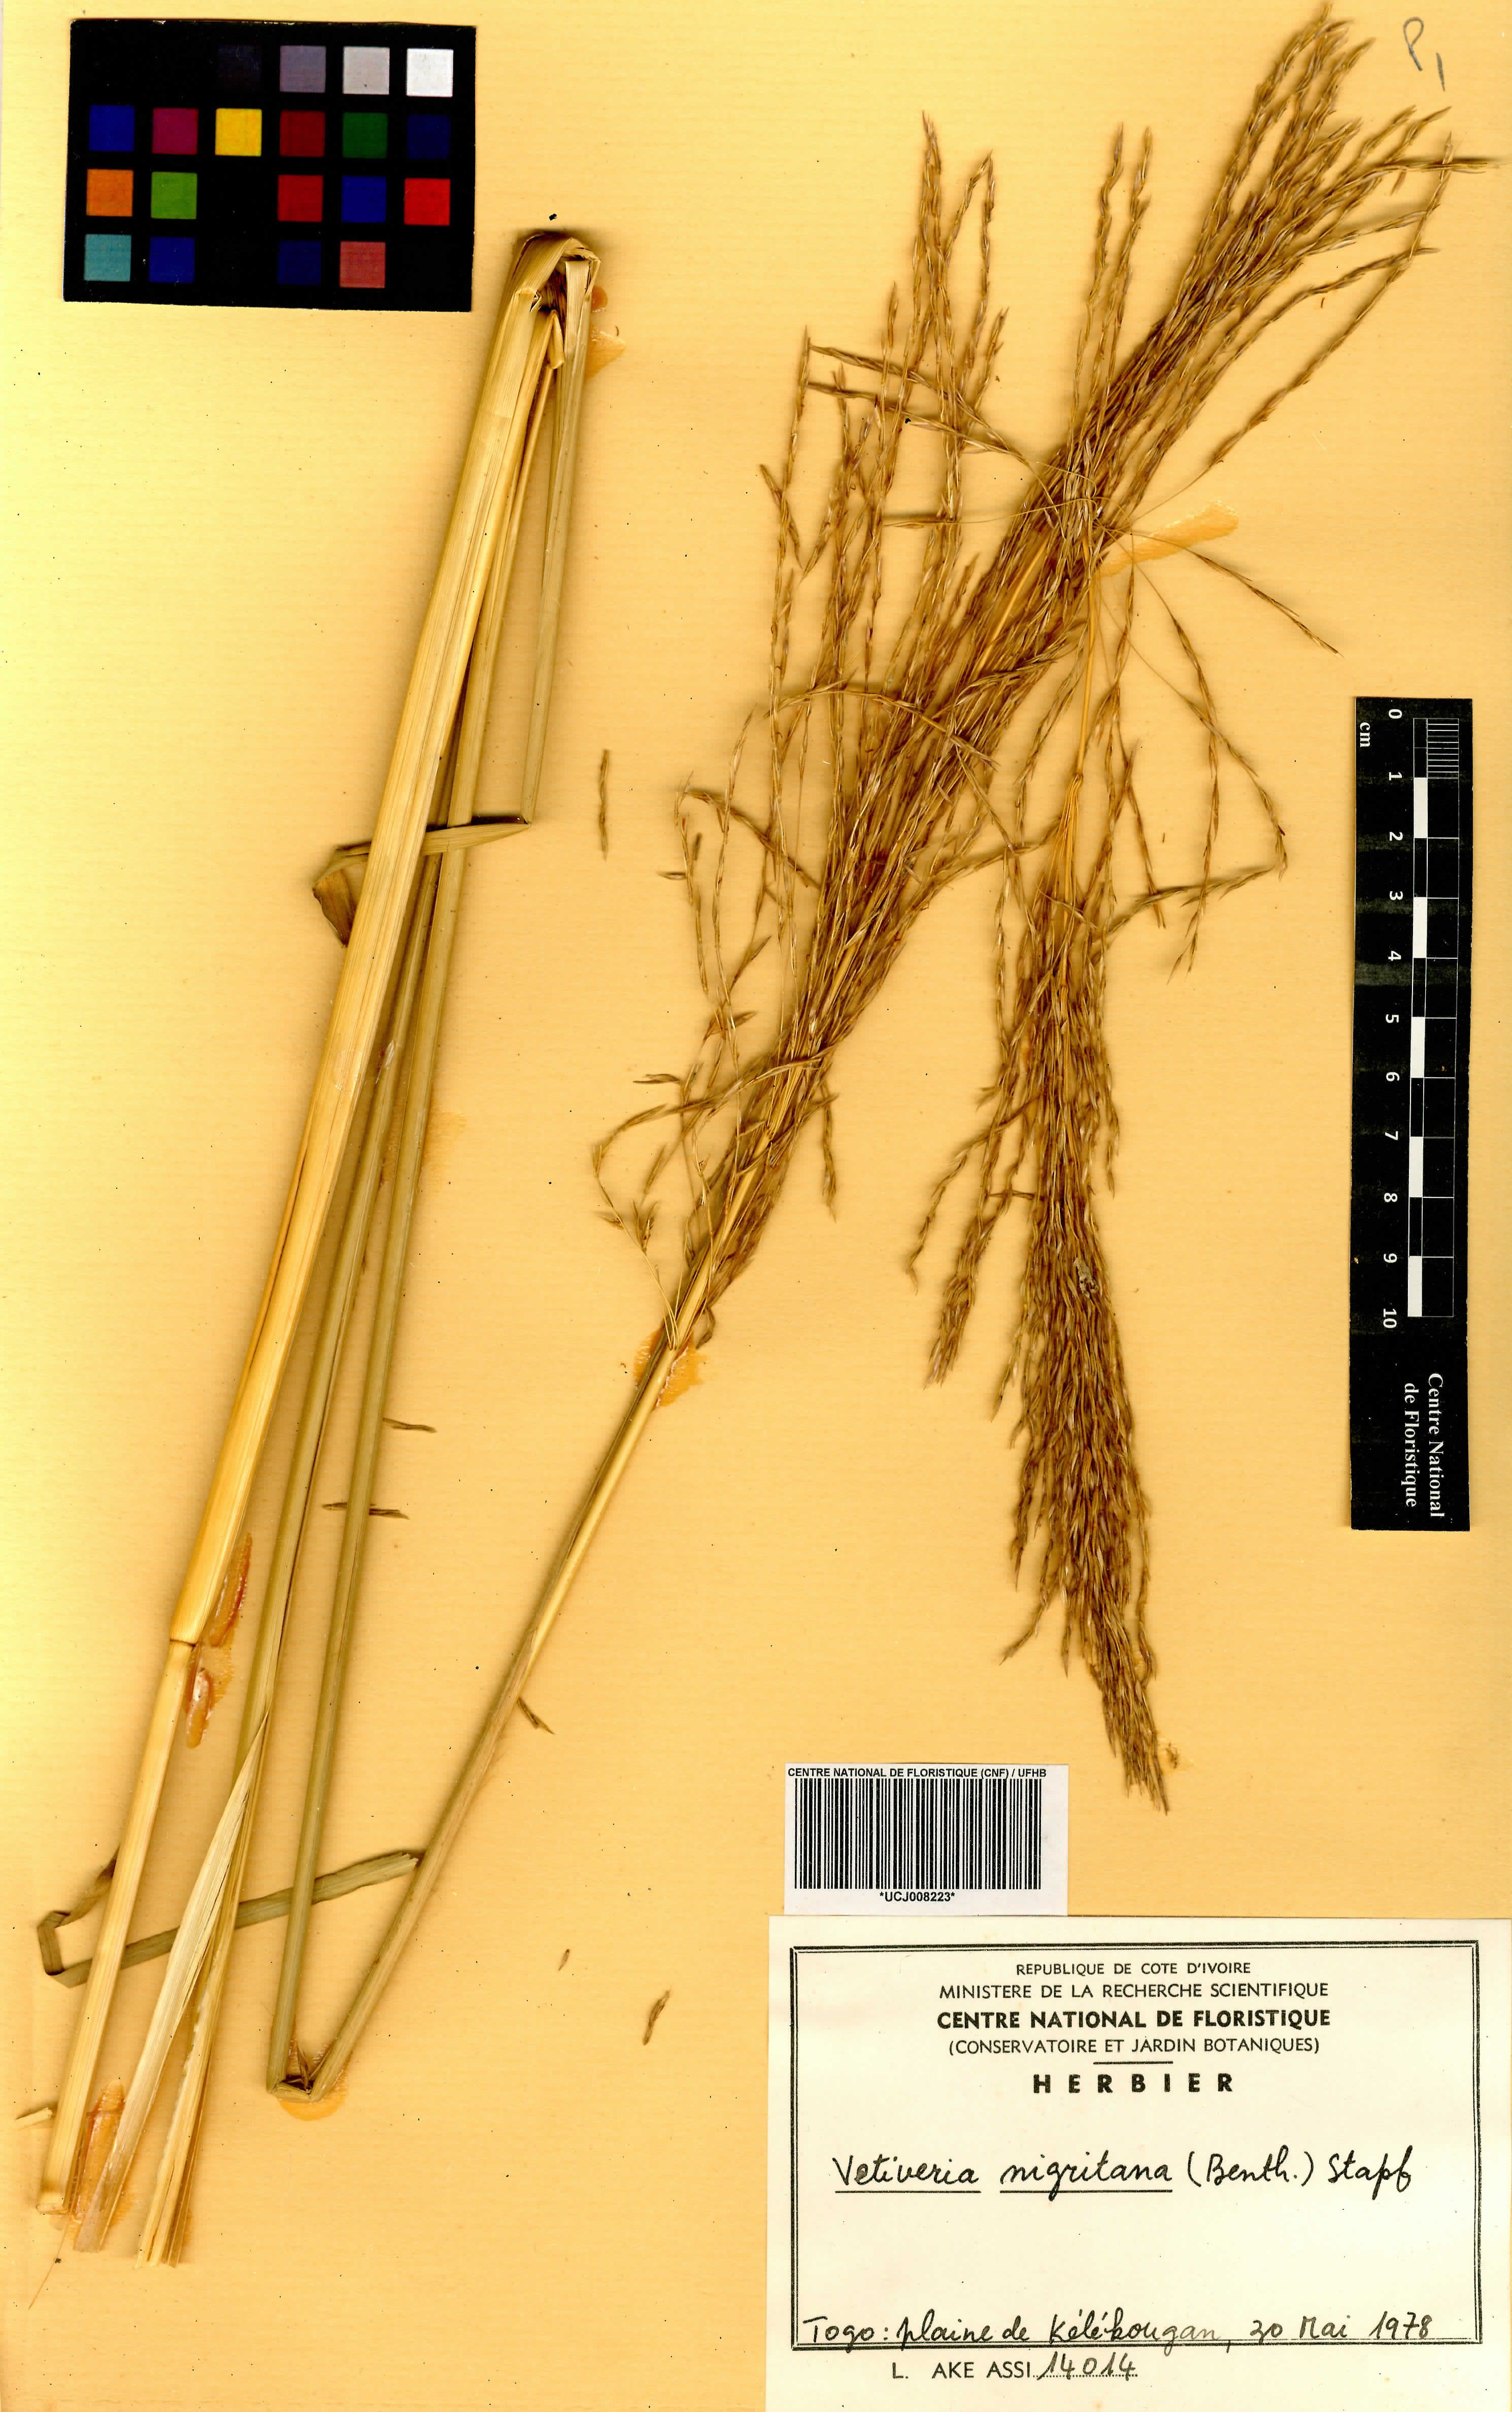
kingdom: Plantae
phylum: Tracheophyta
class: Liliopsida
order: Poales
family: Poaceae
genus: Chrysopogon
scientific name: Chrysopogon nigritanus
